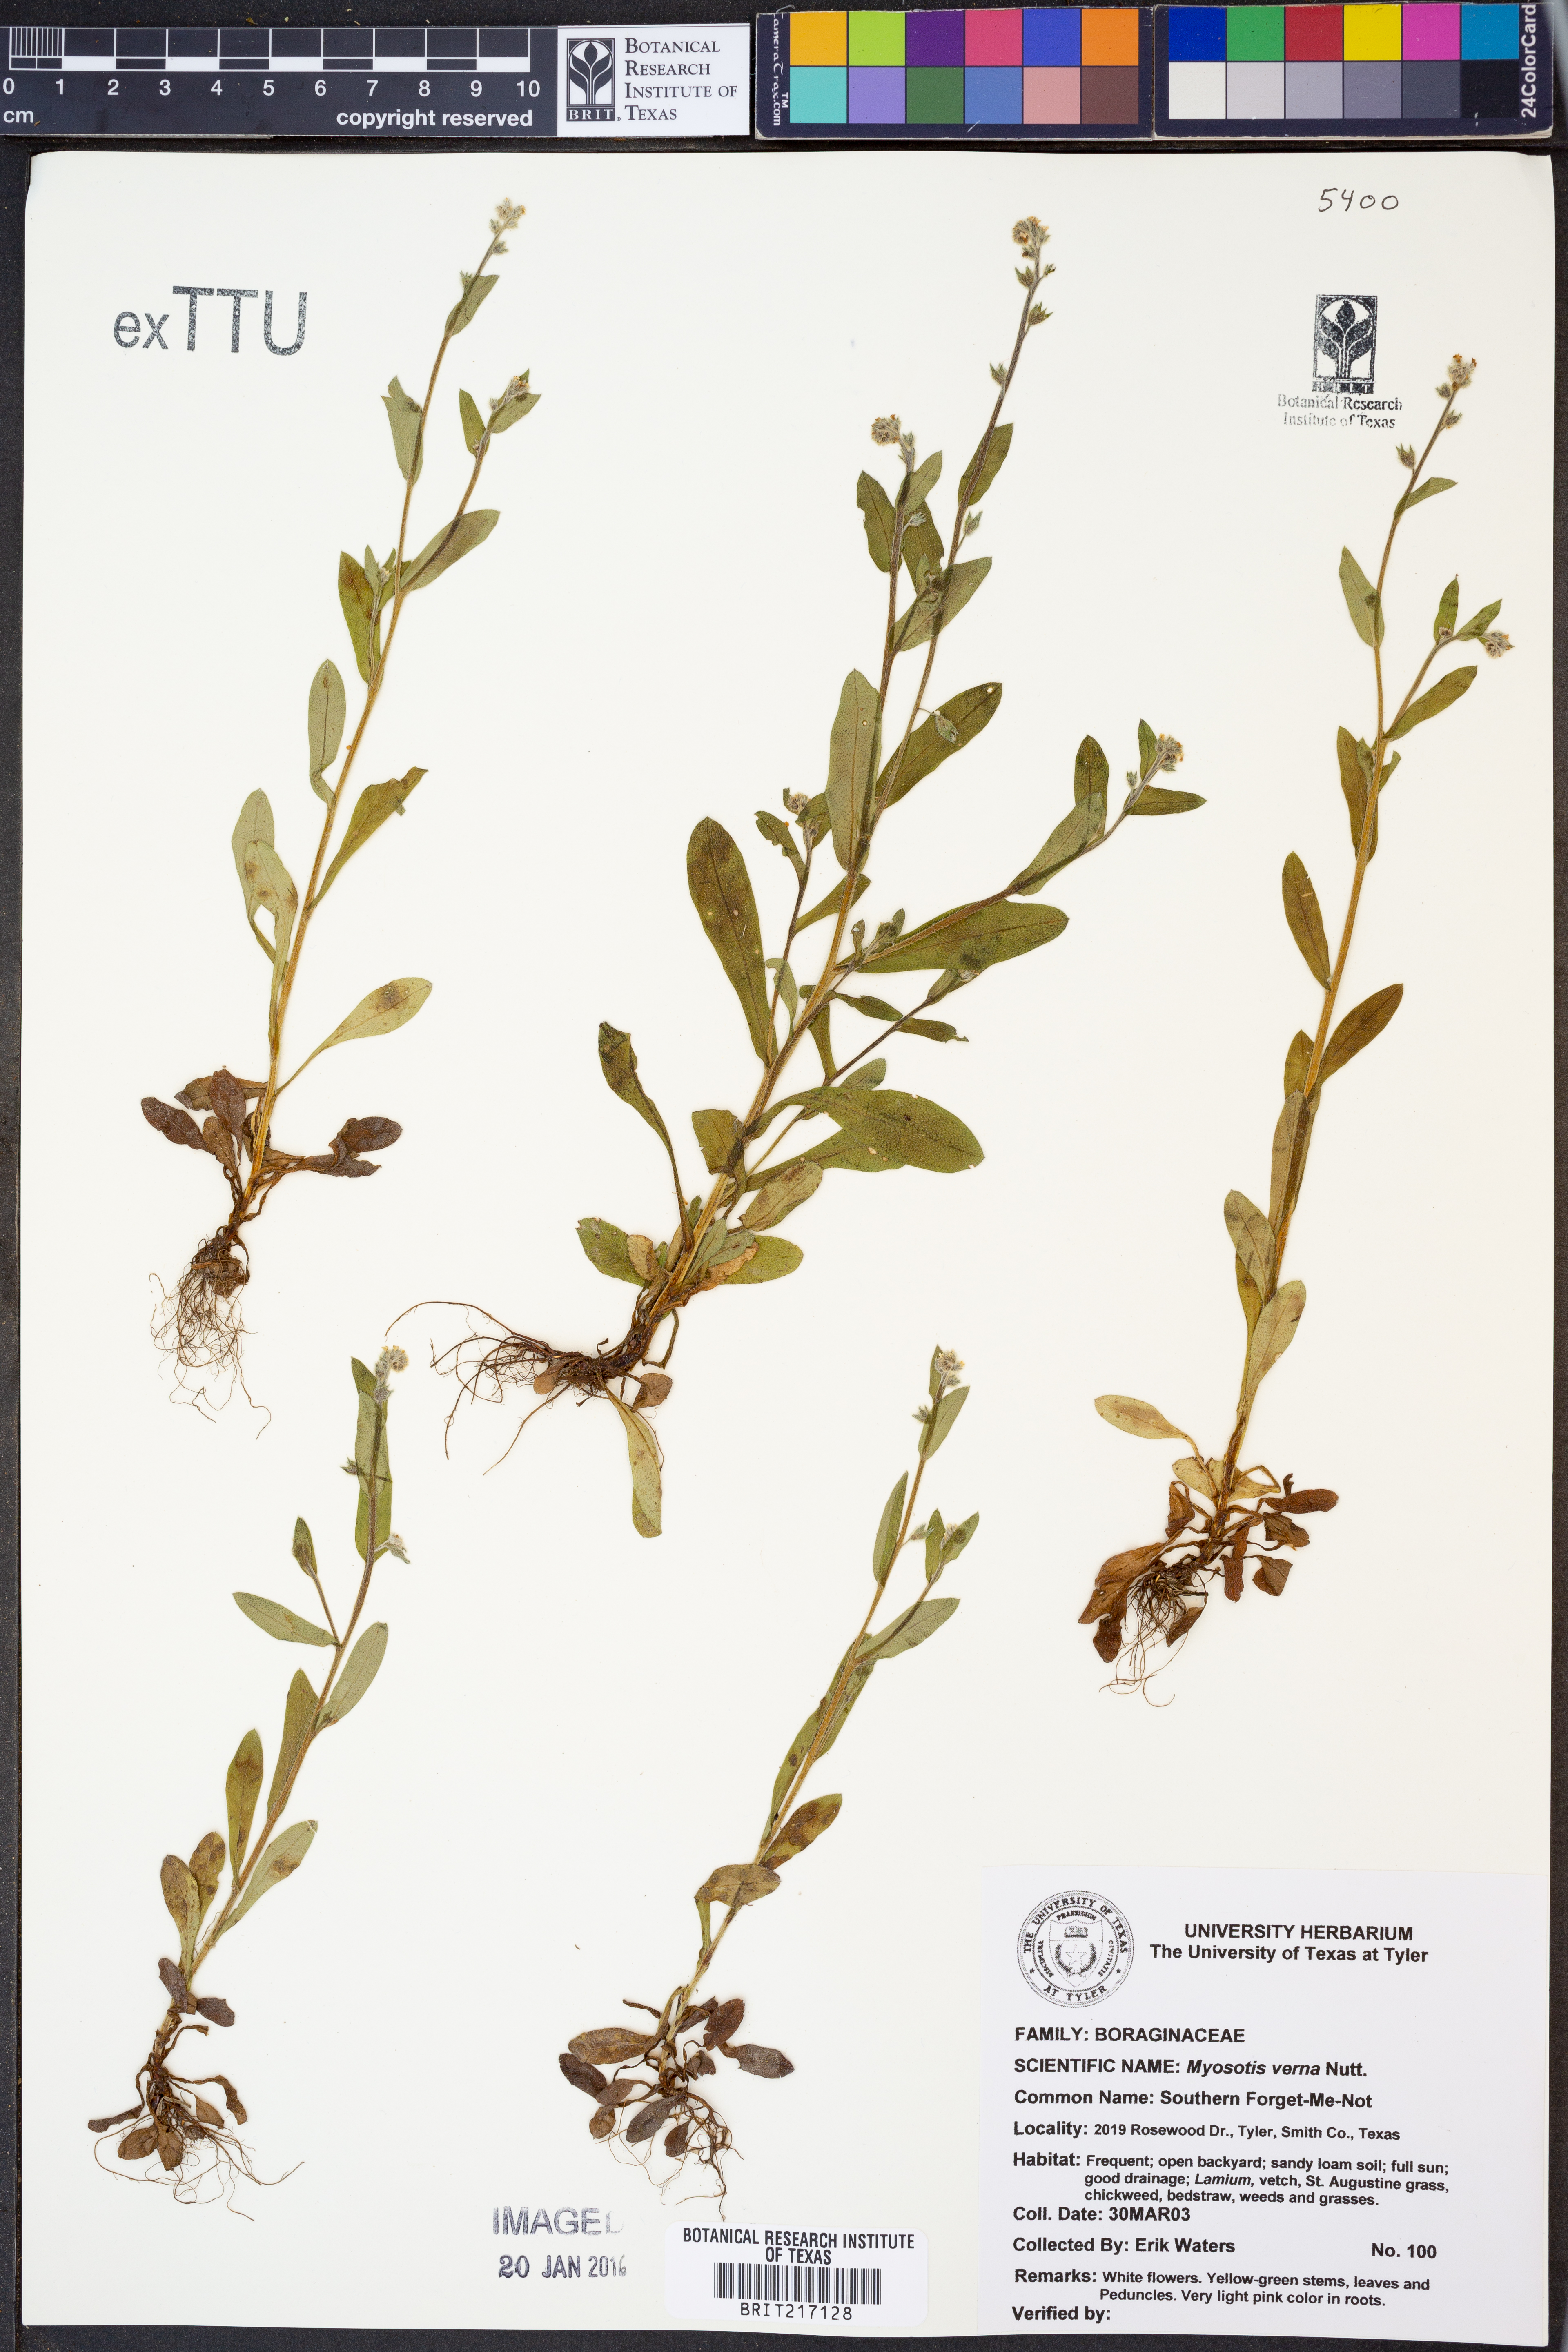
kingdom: Plantae
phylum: Tracheophyta
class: Magnoliopsida
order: Boraginales
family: Boraginaceae
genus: Myosotis
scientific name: Myosotis verna
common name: Early forget-me-not
